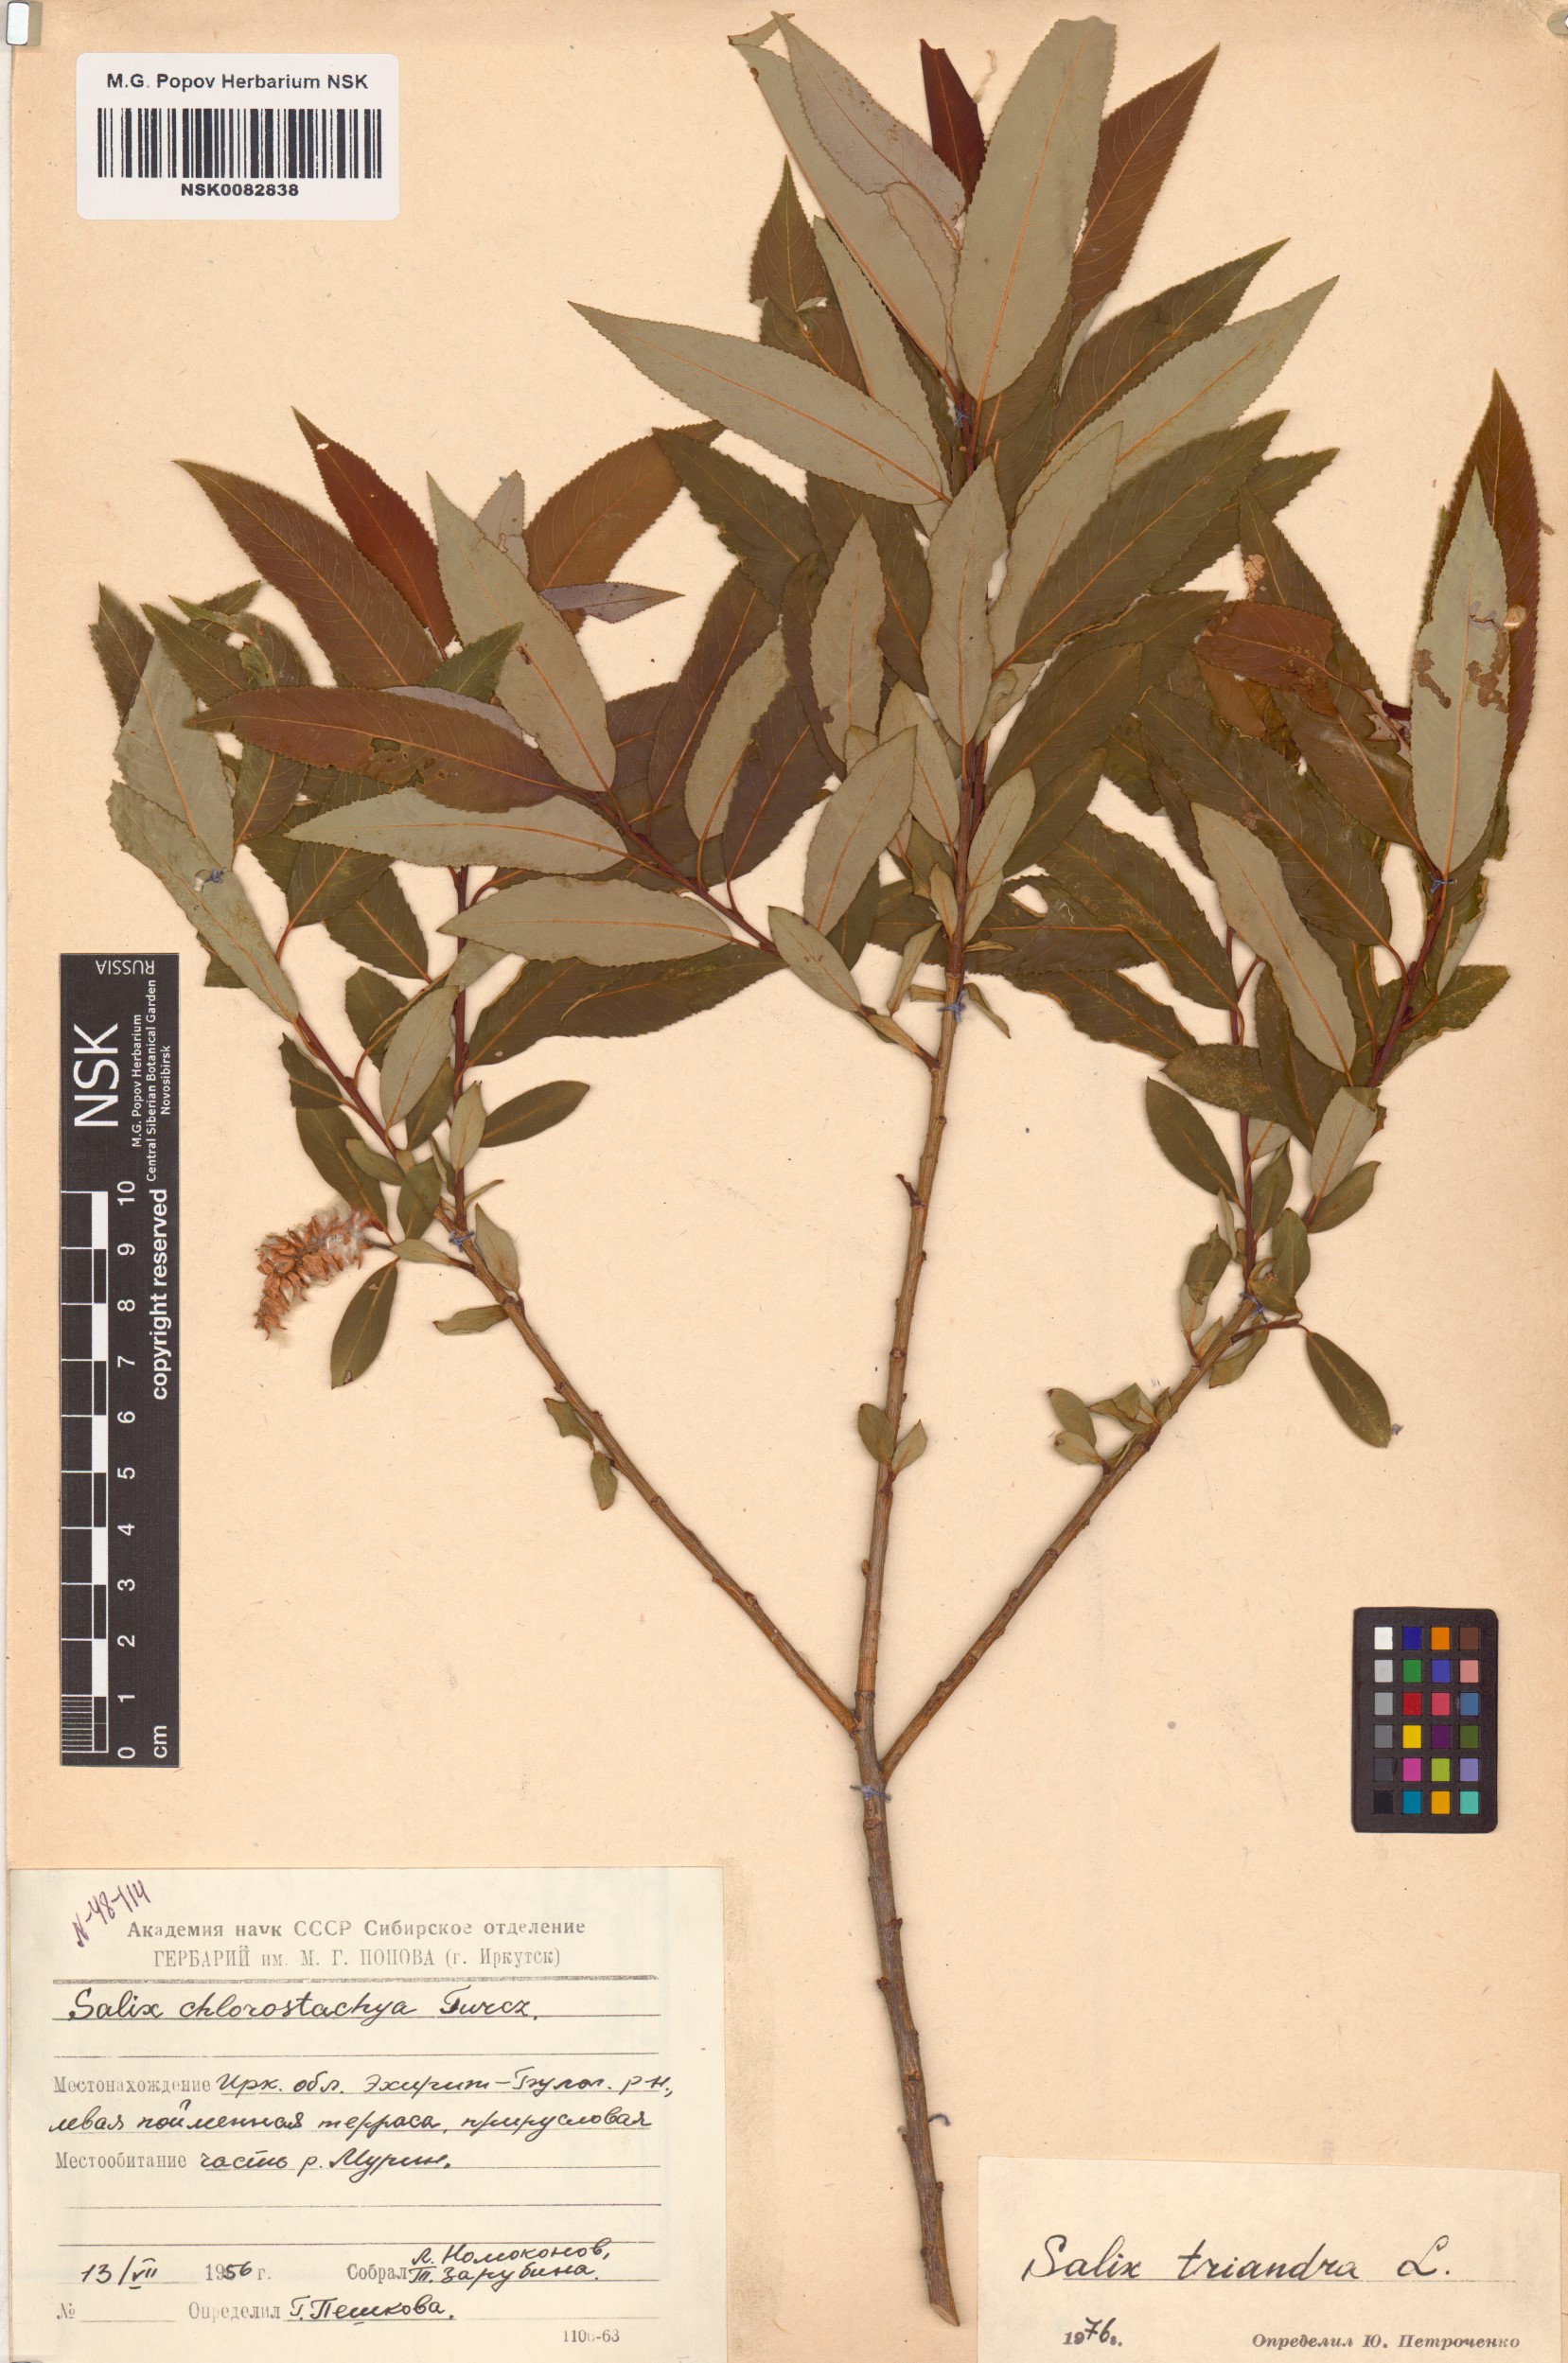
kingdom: Plantae
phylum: Tracheophyta
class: Magnoliopsida
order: Malpighiales
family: Salicaceae
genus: Salix
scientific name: Salix triandra
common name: Almond willow
